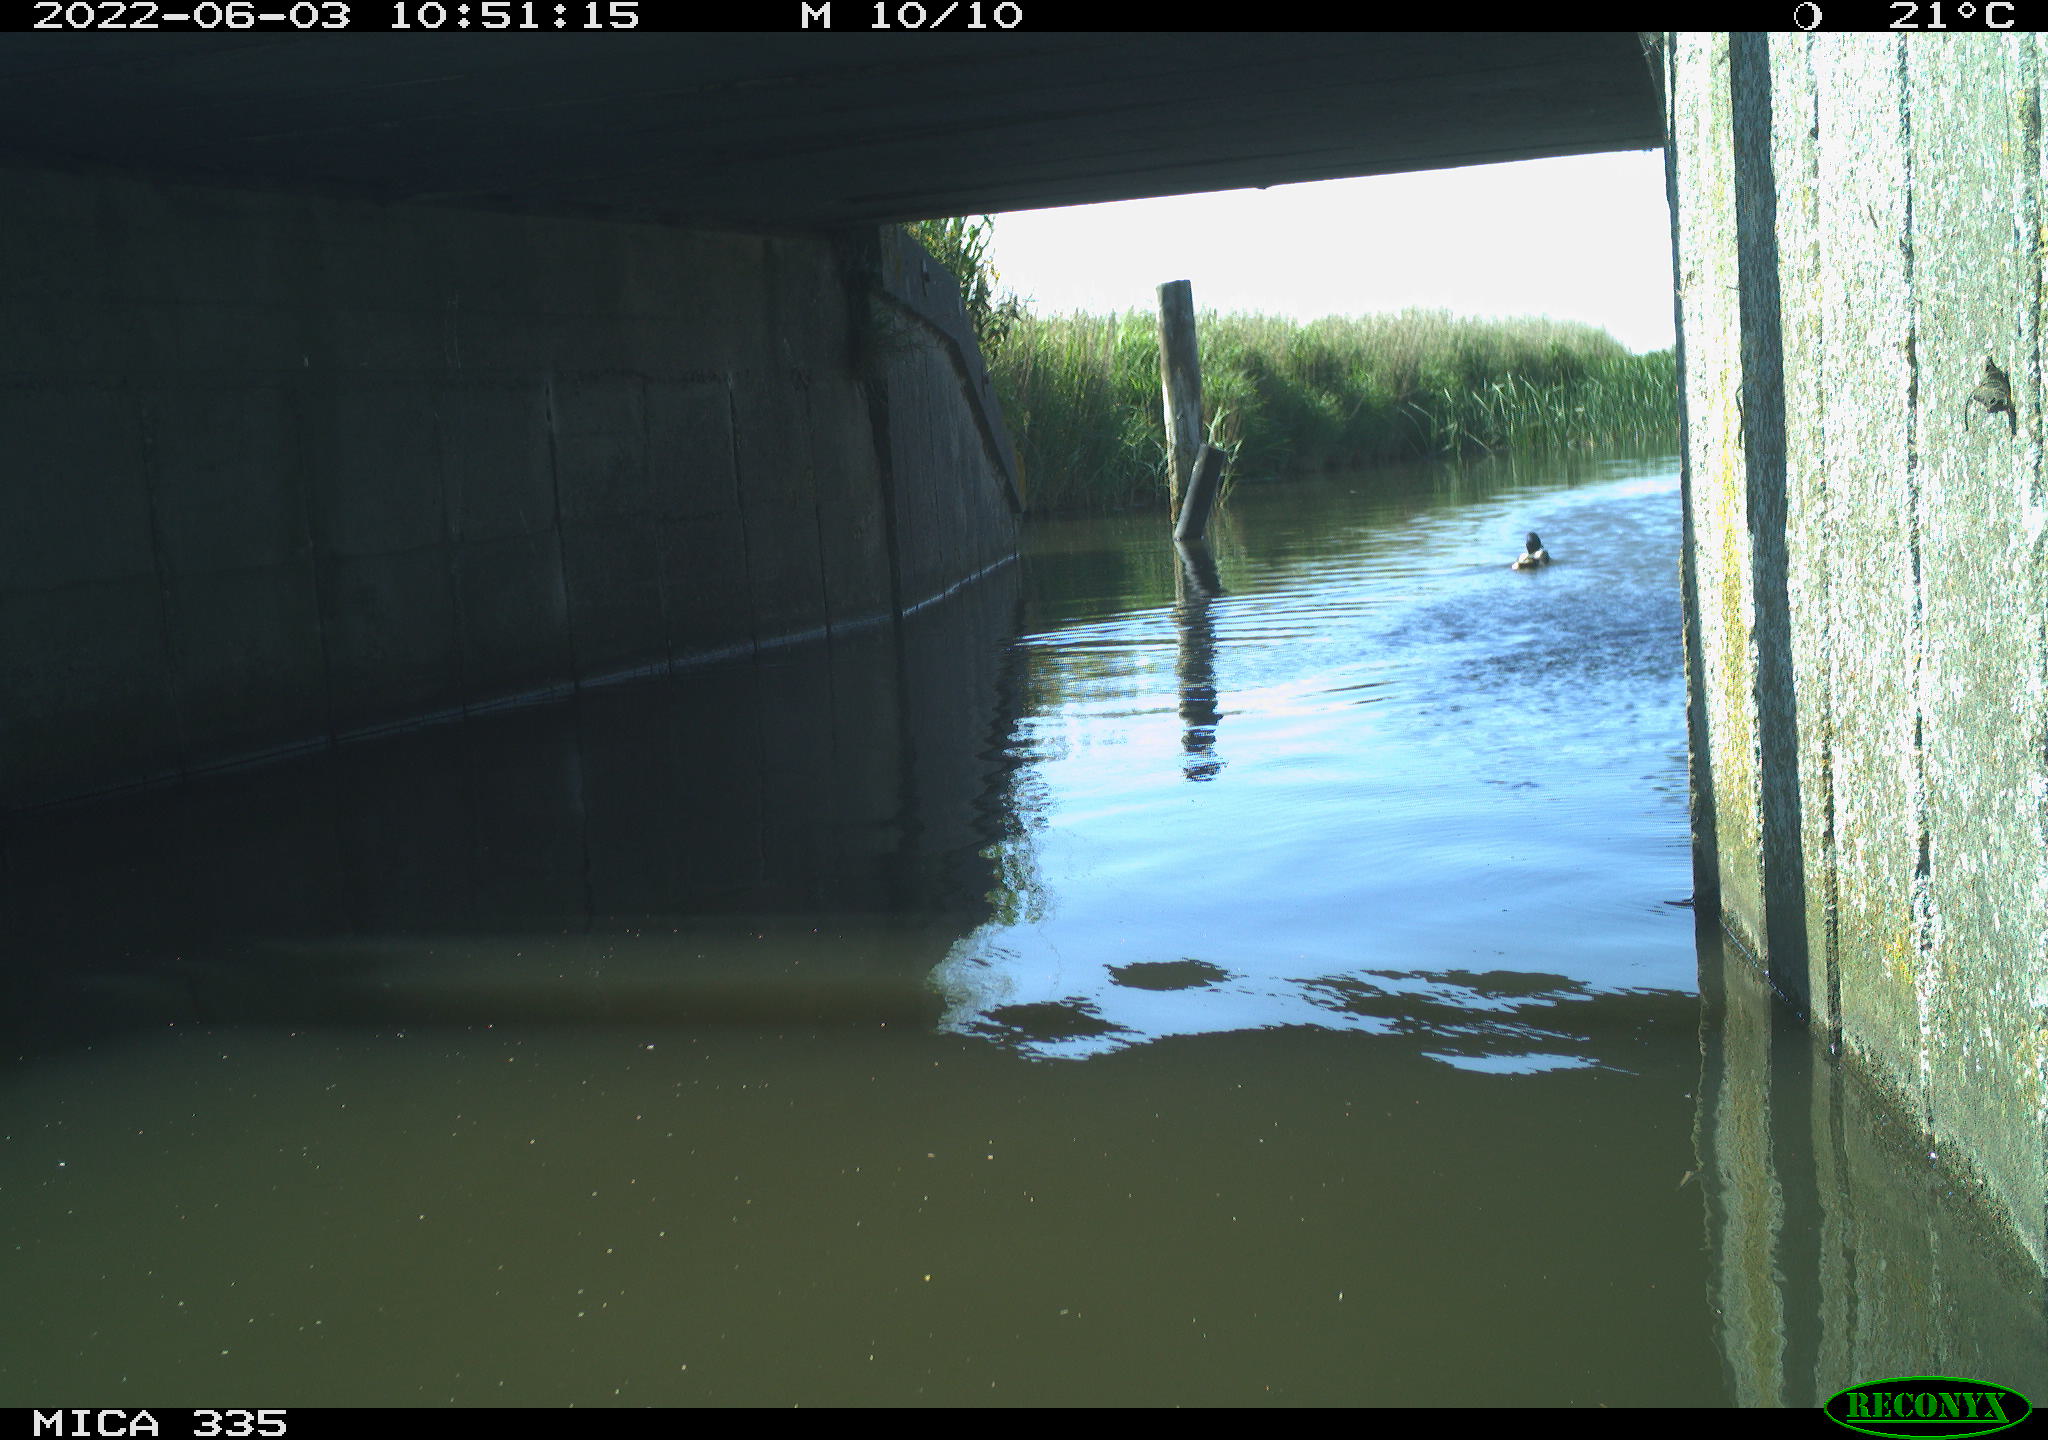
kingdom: Animalia
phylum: Chordata
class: Aves
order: Anseriformes
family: Anatidae
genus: Anas
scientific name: Anas platyrhynchos
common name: Mallard
